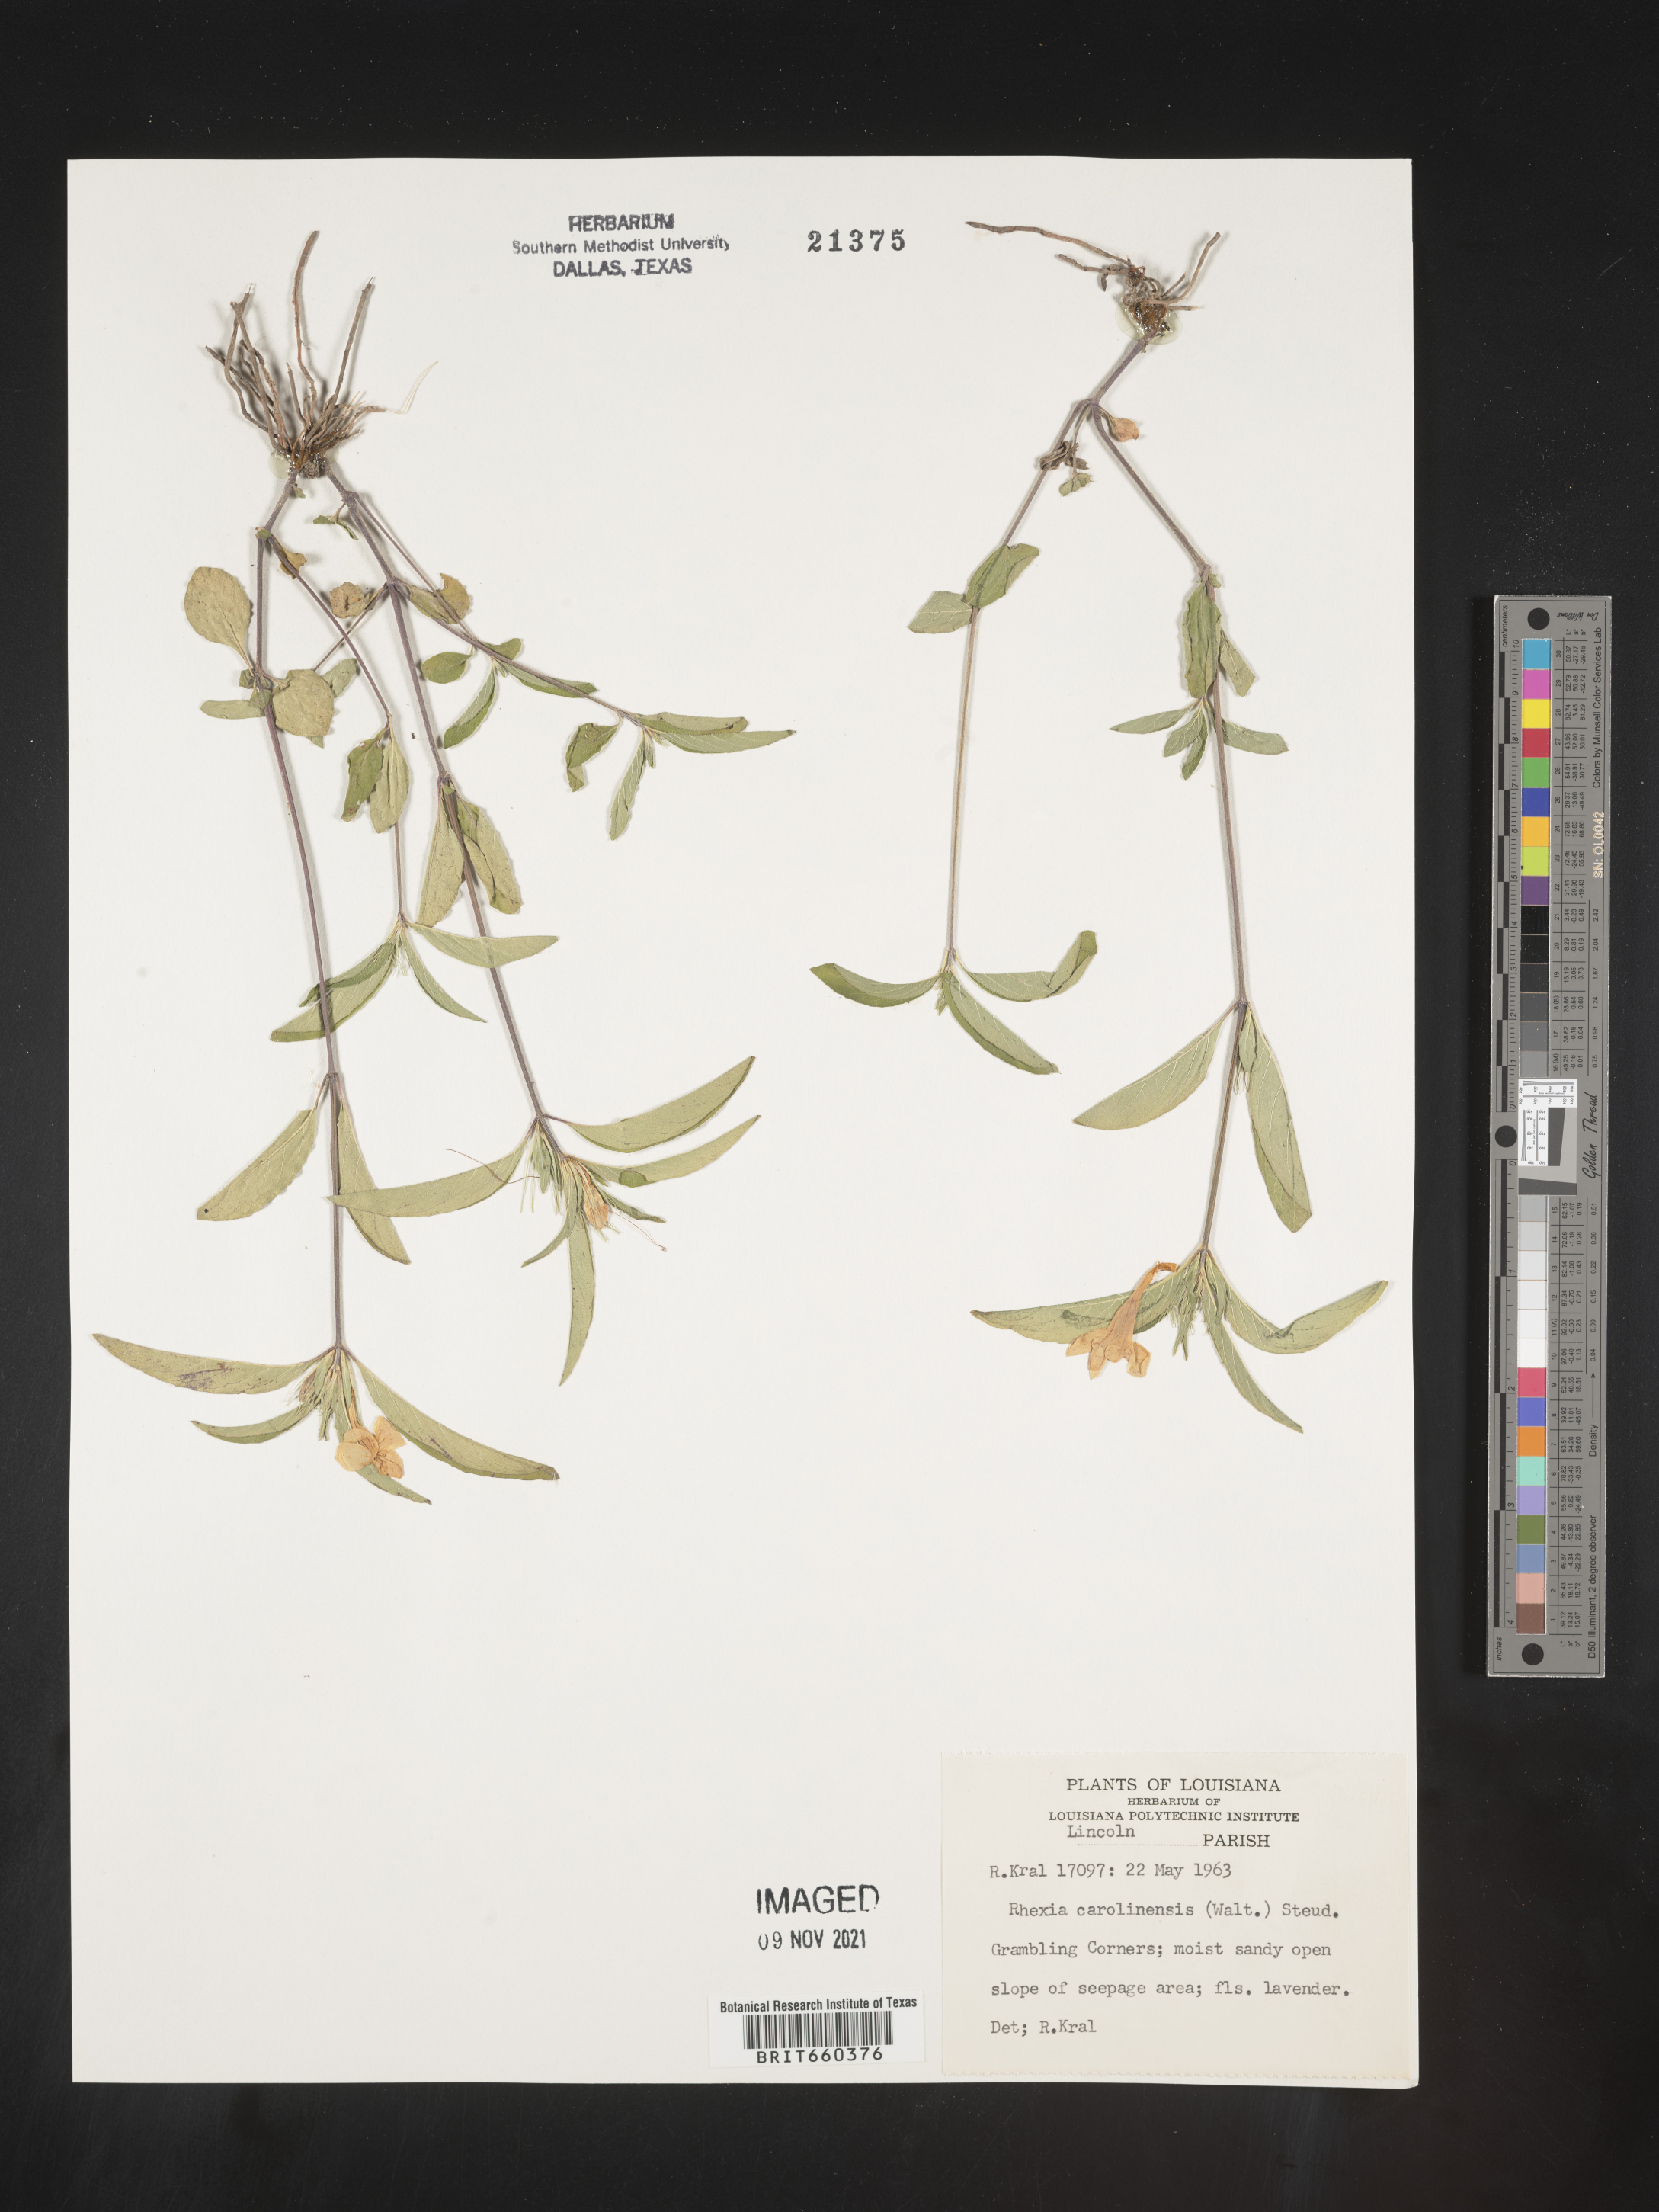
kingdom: Plantae
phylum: Tracheophyta
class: Magnoliopsida
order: Lamiales
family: Acanthaceae
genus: Ruellia
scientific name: Ruellia caroliniensis
